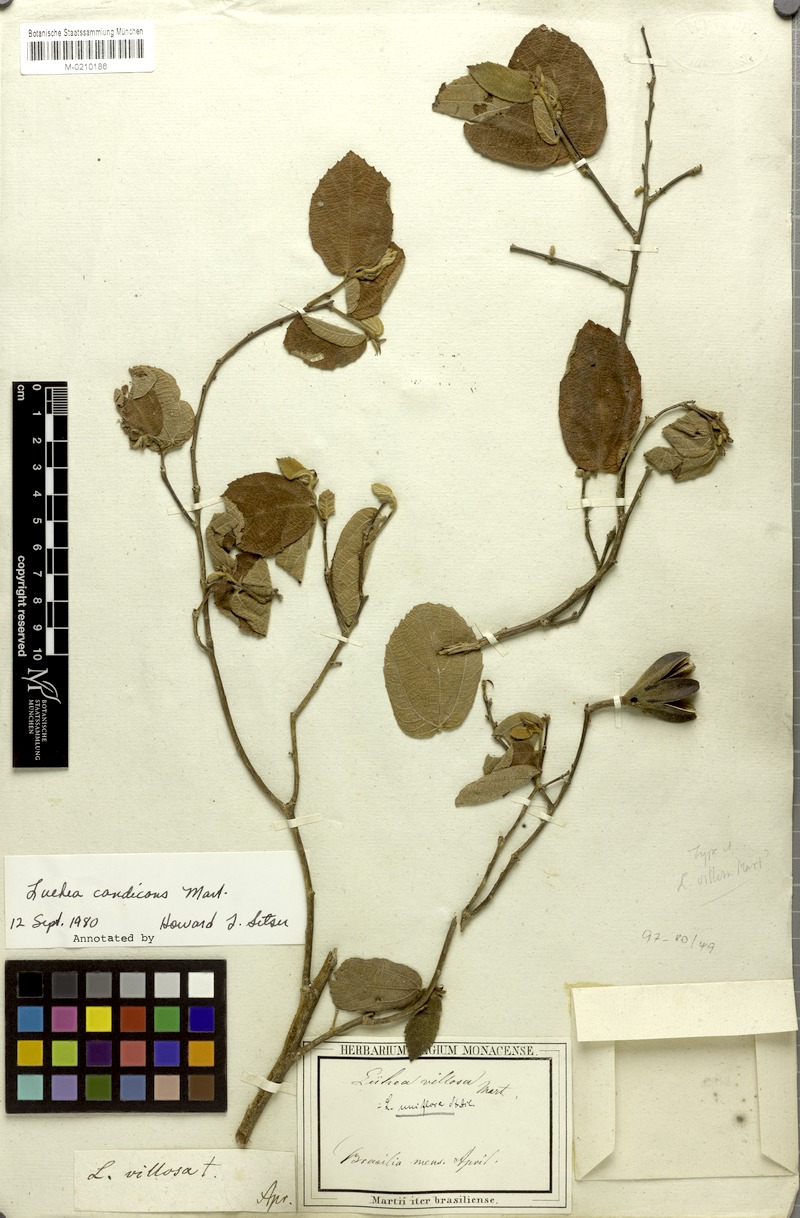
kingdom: Plantae
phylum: Tracheophyta
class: Magnoliopsida
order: Malvales
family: Malvaceae
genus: Luehea
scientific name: Luehea candicans
